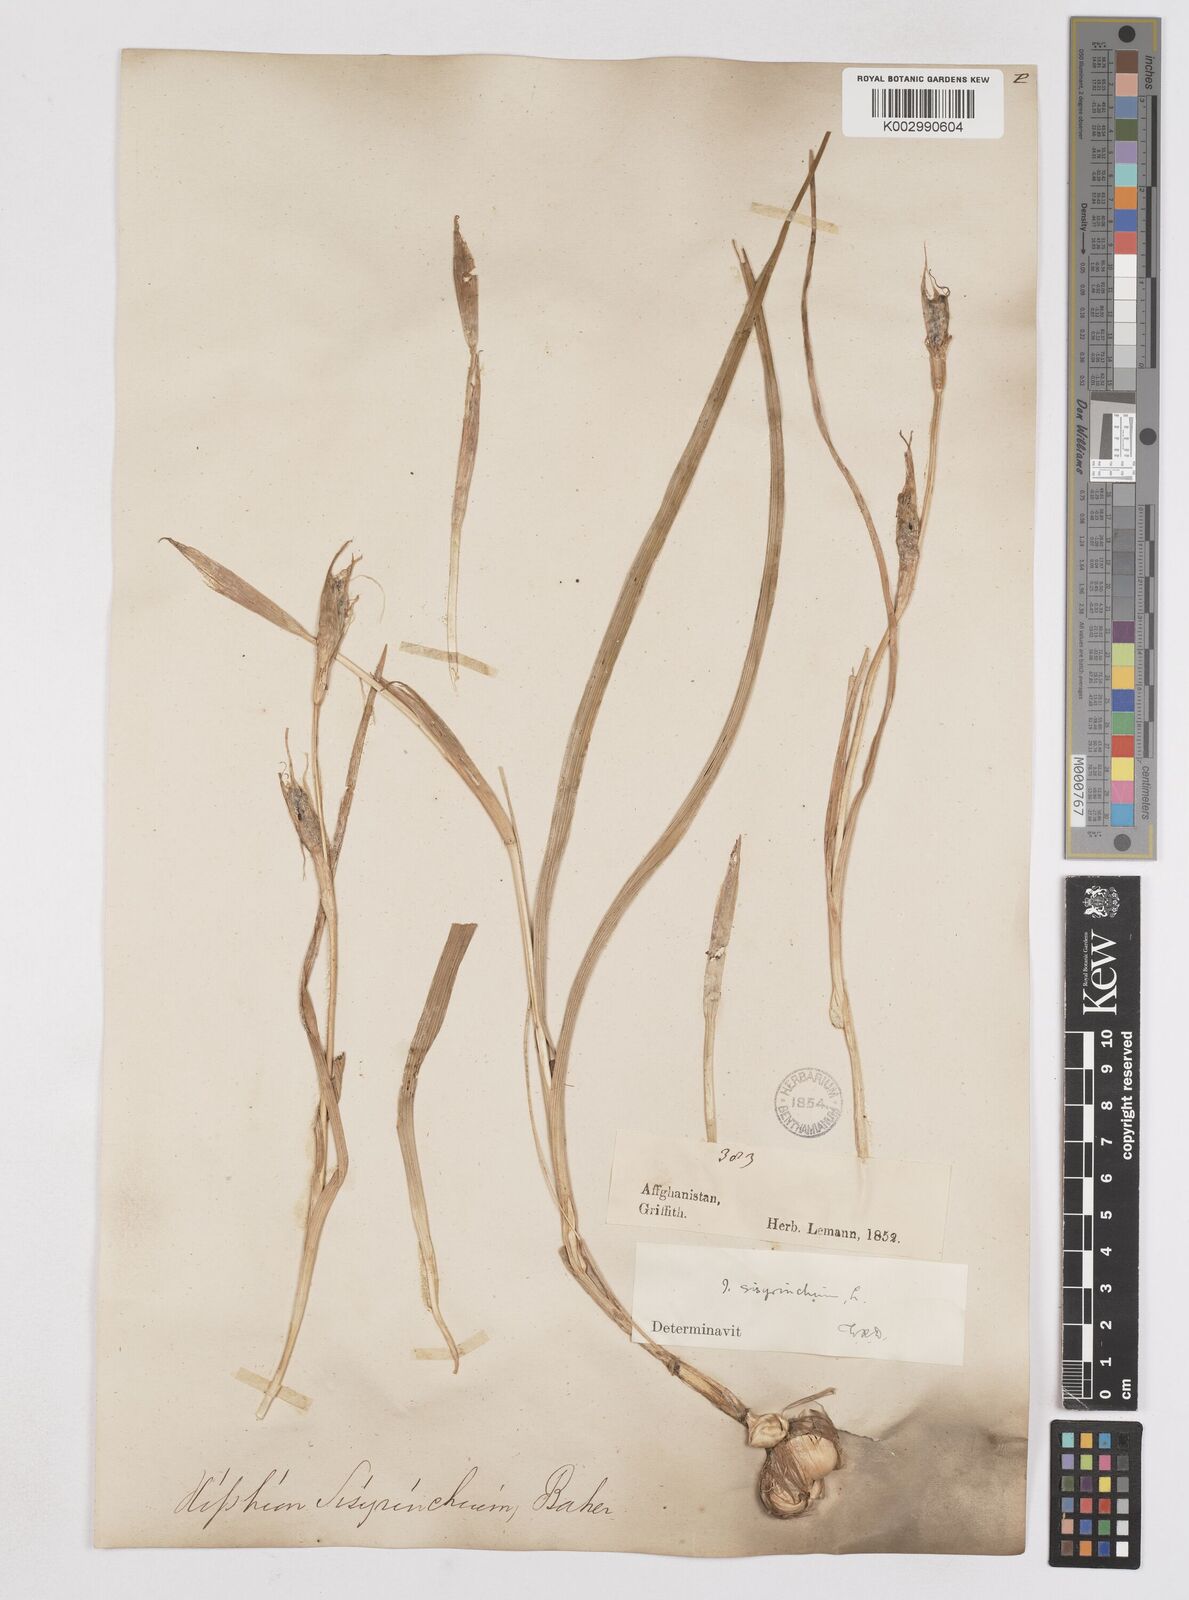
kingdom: Plantae
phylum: Tracheophyta
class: Liliopsida
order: Asparagales
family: Iridaceae
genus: Moraea
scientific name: Moraea sisyrinchium
